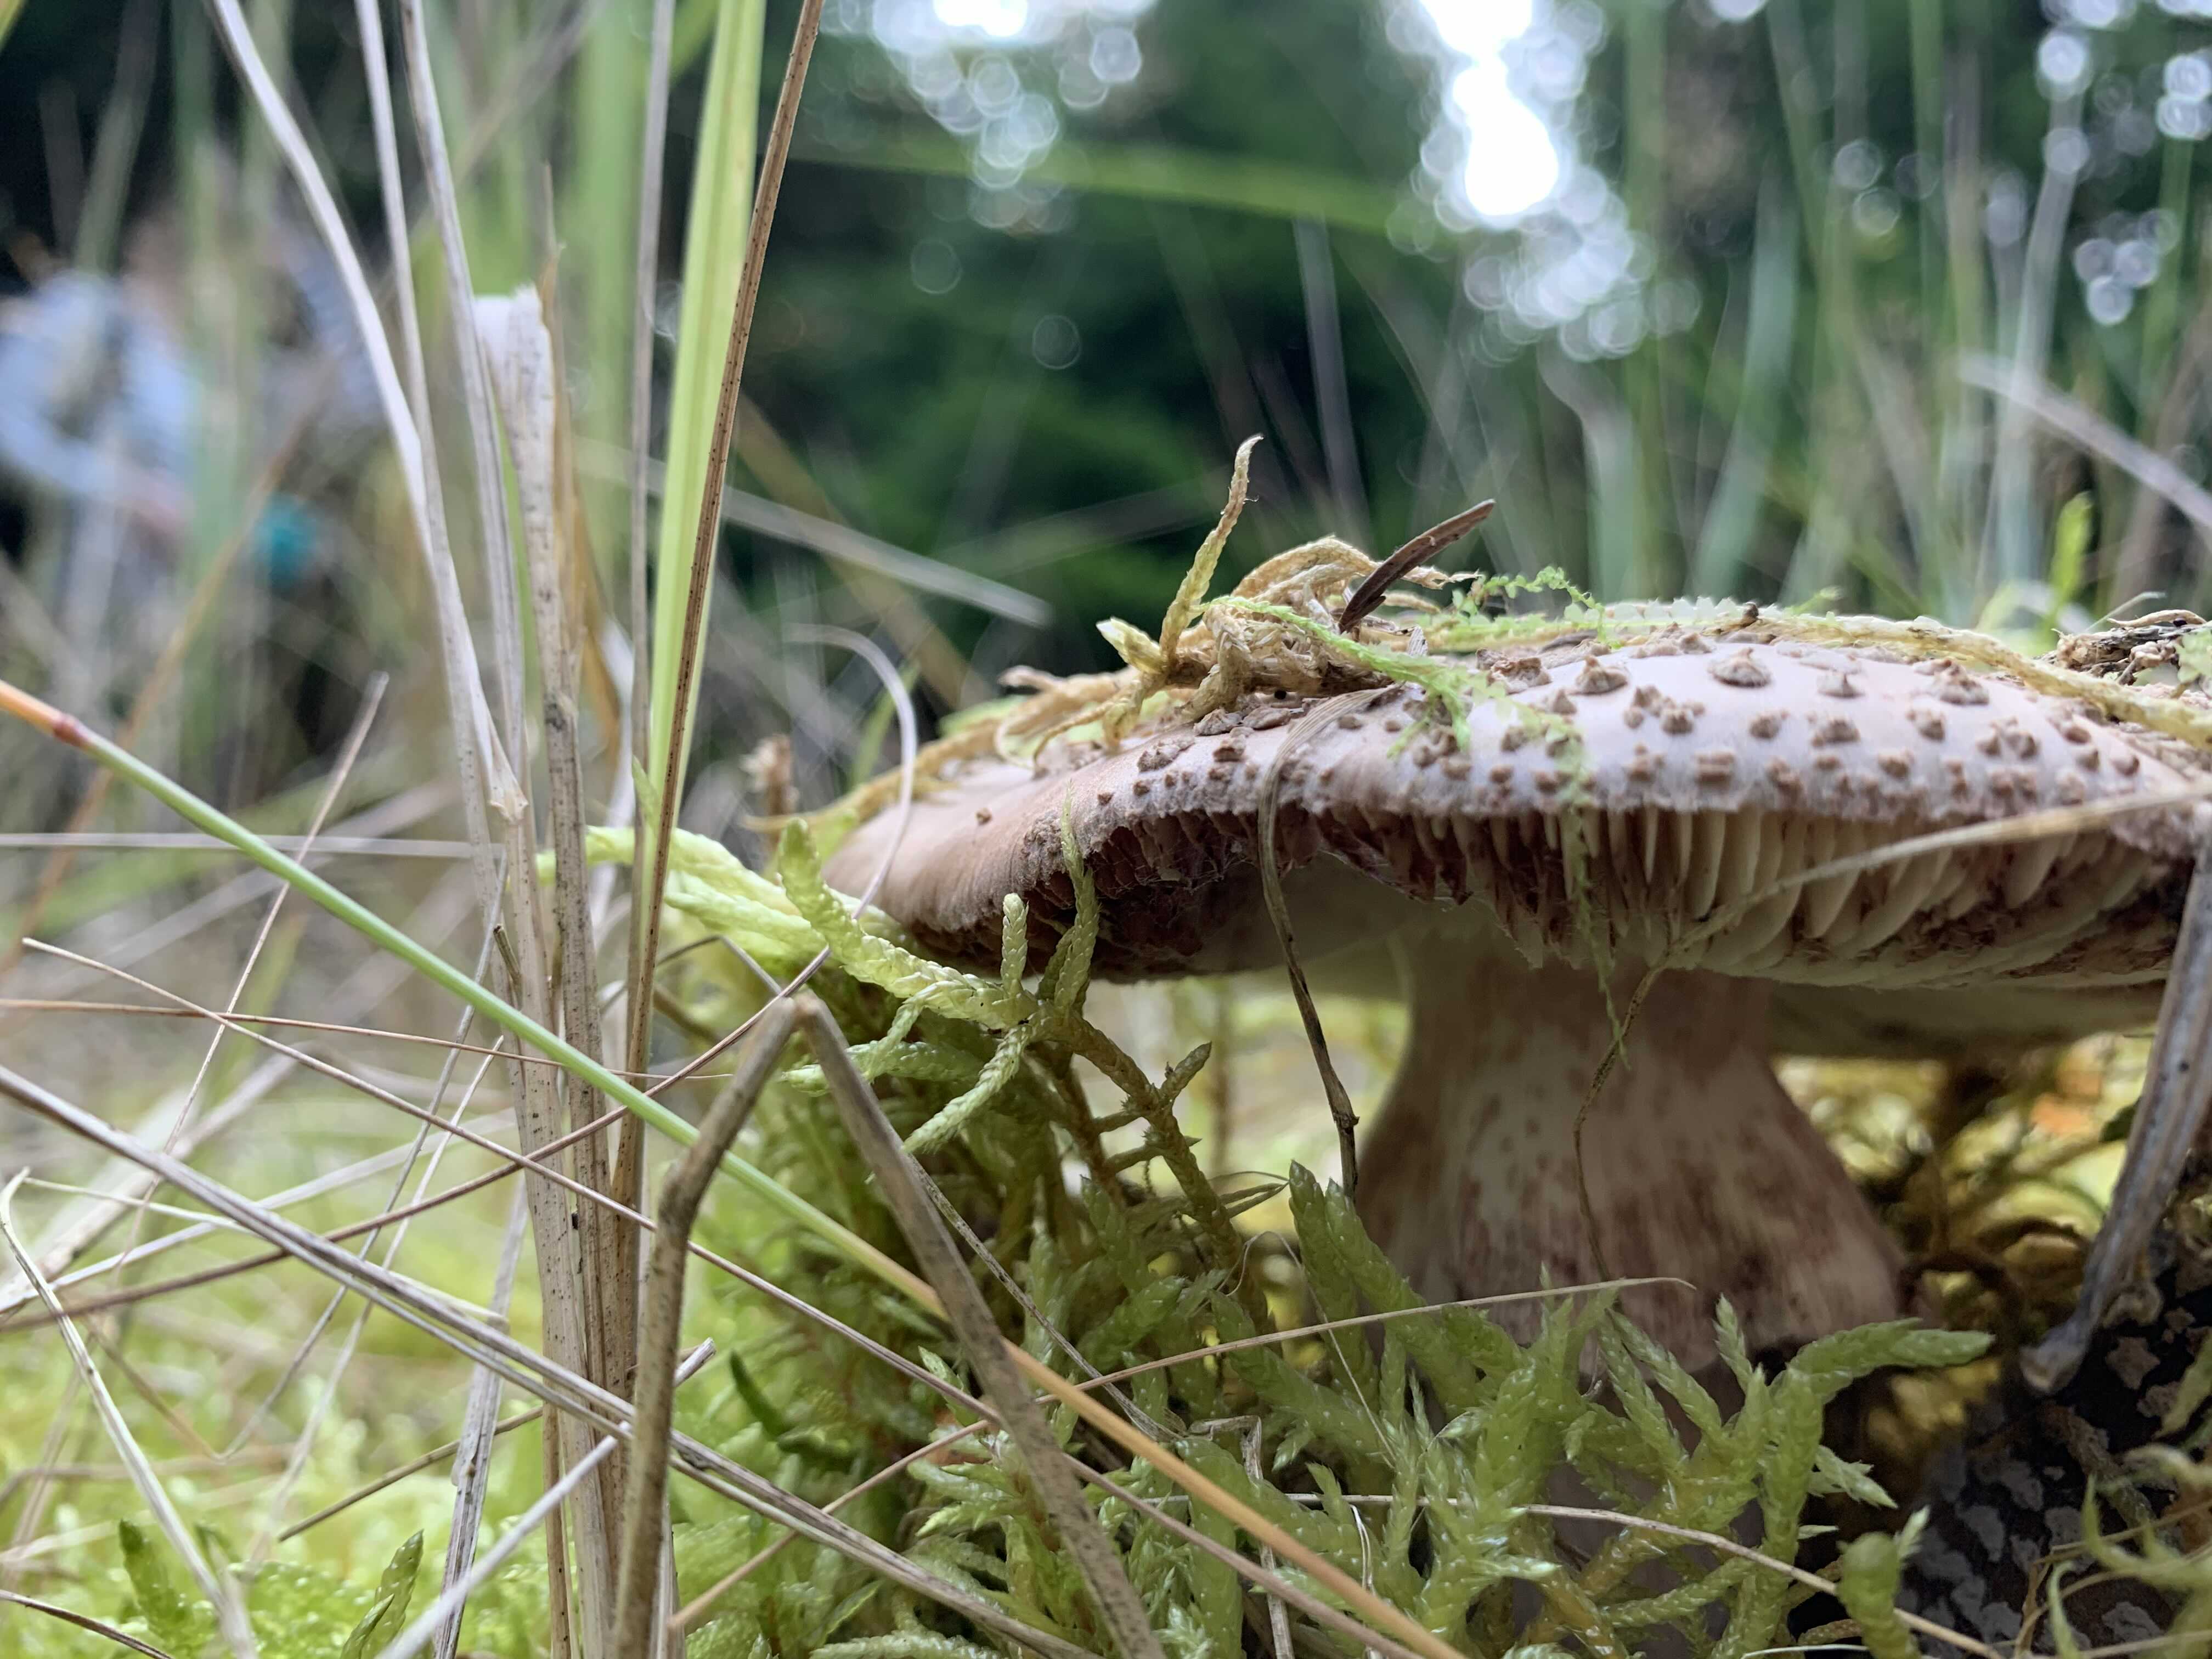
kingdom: Fungi
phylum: Basidiomycota
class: Agaricomycetes
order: Agaricales
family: Amanitaceae
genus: Amanita
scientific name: Amanita rubescens
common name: rødmende fluesvamp
